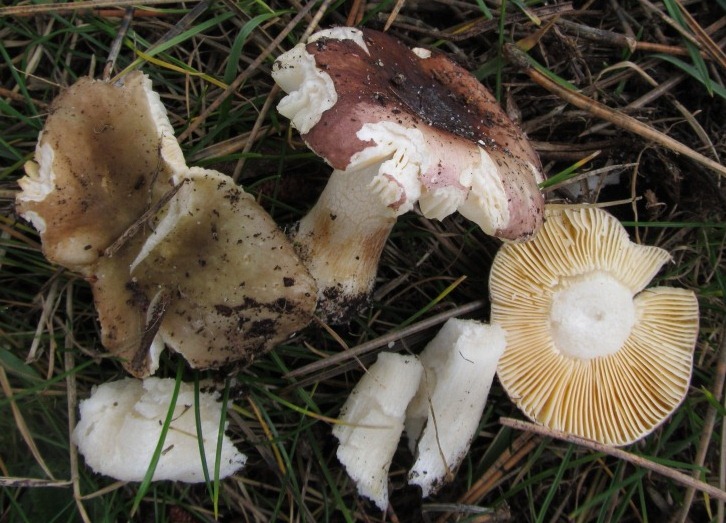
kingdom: Fungi
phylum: Basidiomycota
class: Agaricomycetes
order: Russulales
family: Russulaceae
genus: Russula
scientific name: Russula cessans
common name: fyrre-skørhat
